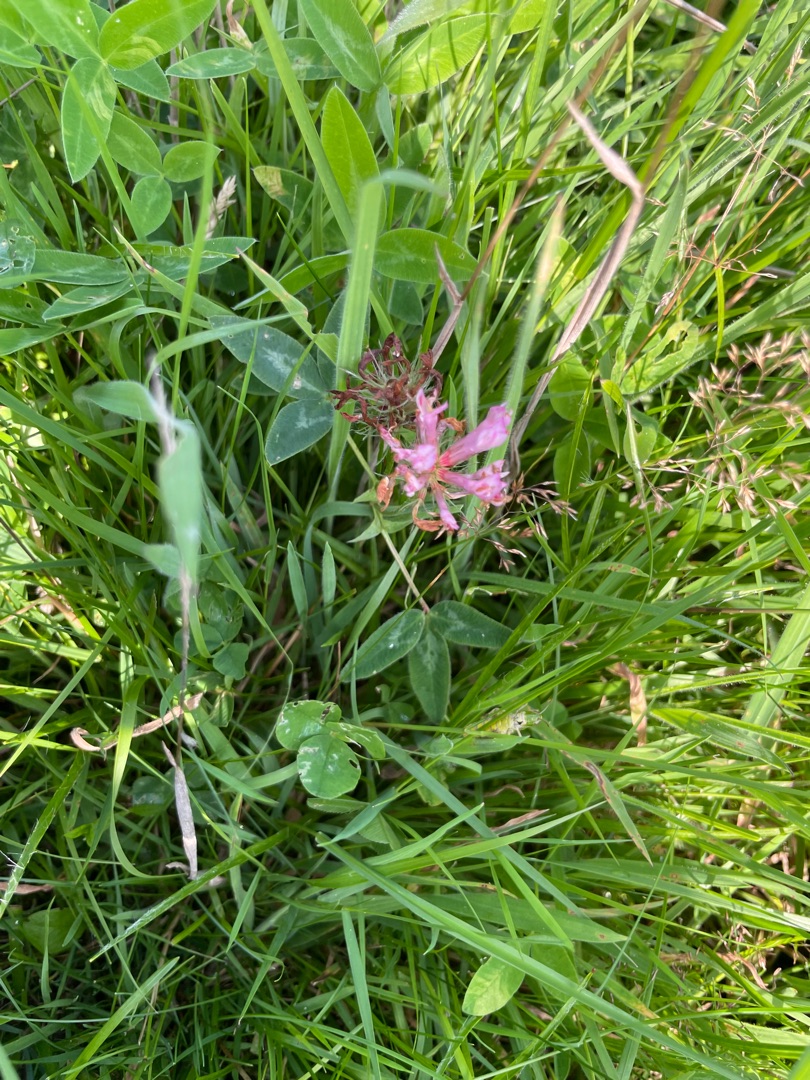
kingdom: Plantae
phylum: Tracheophyta
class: Magnoliopsida
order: Fabales
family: Fabaceae
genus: Trifolium
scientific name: Trifolium medium
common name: Bugtet kløver
